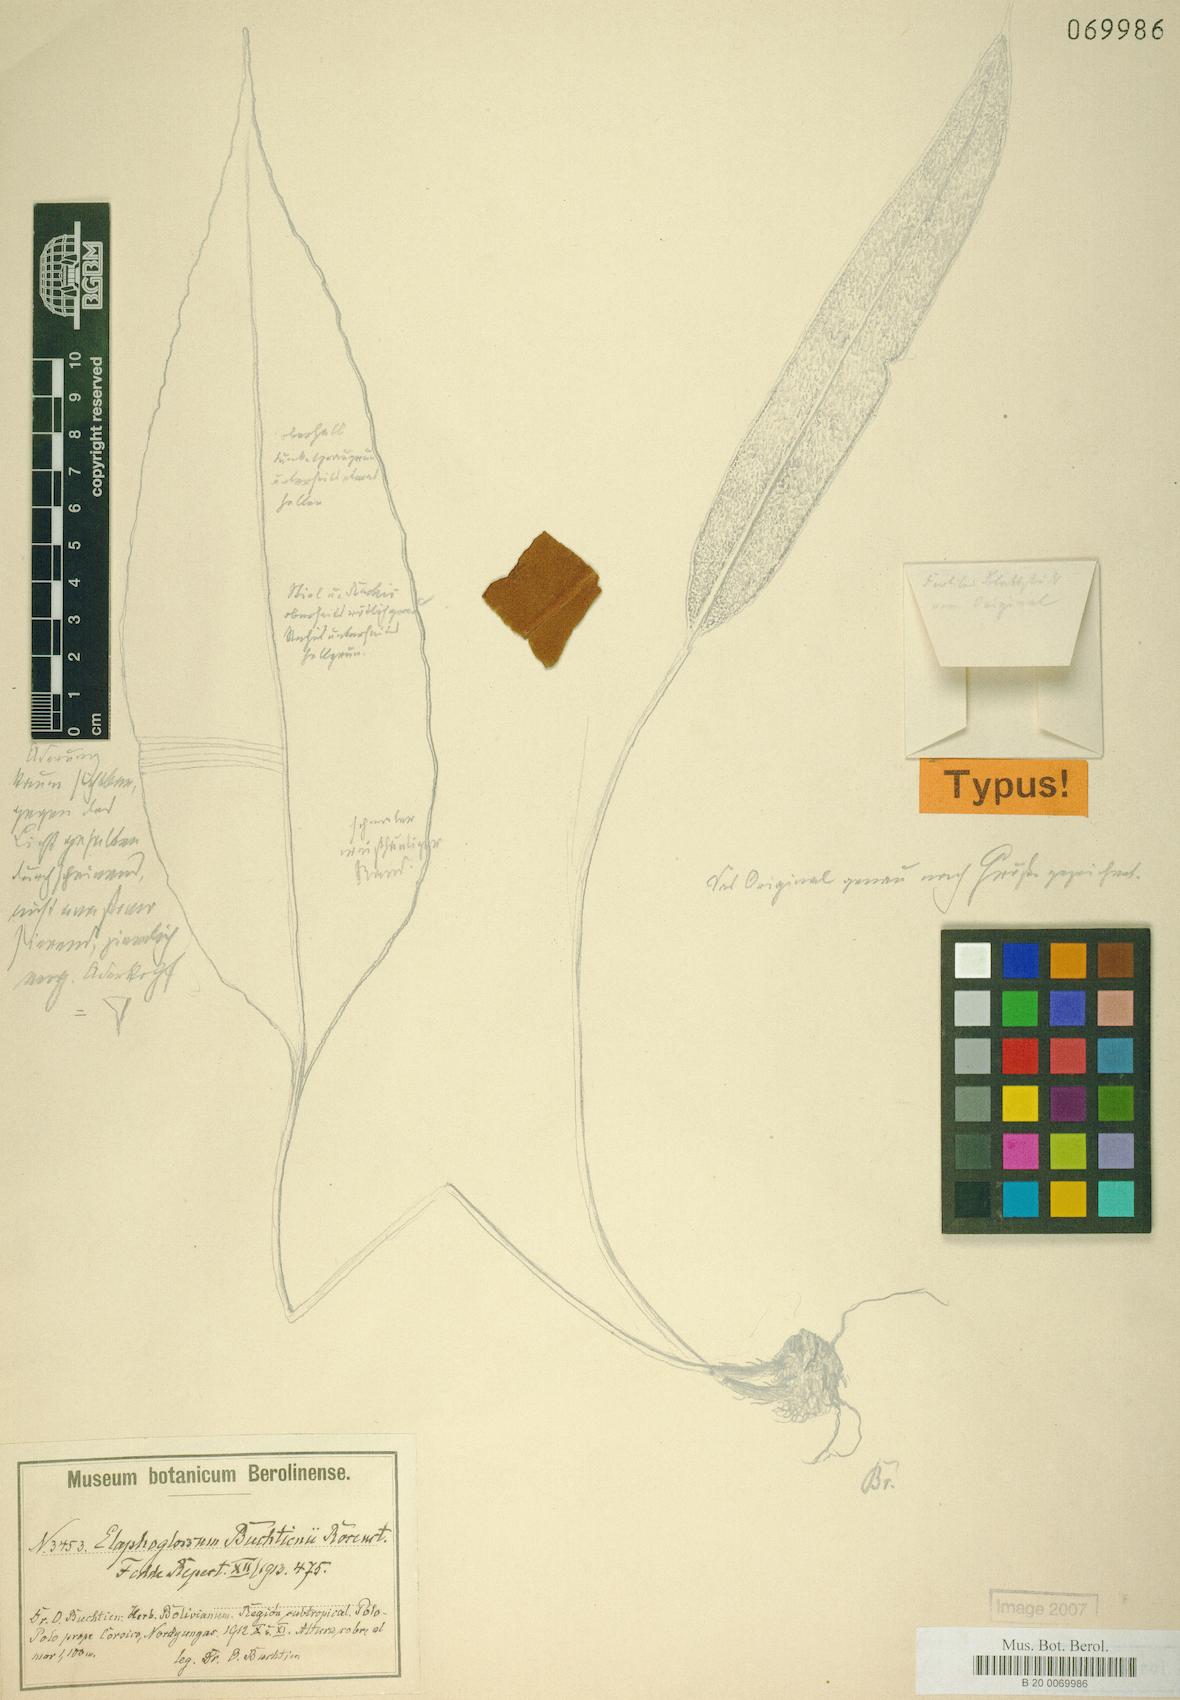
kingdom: Plantae
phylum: Tracheophyta
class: Polypodiopsida
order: Polypodiales
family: Dryopteridaceae
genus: Elaphoglossum
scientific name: Elaphoglossum buchtienii
